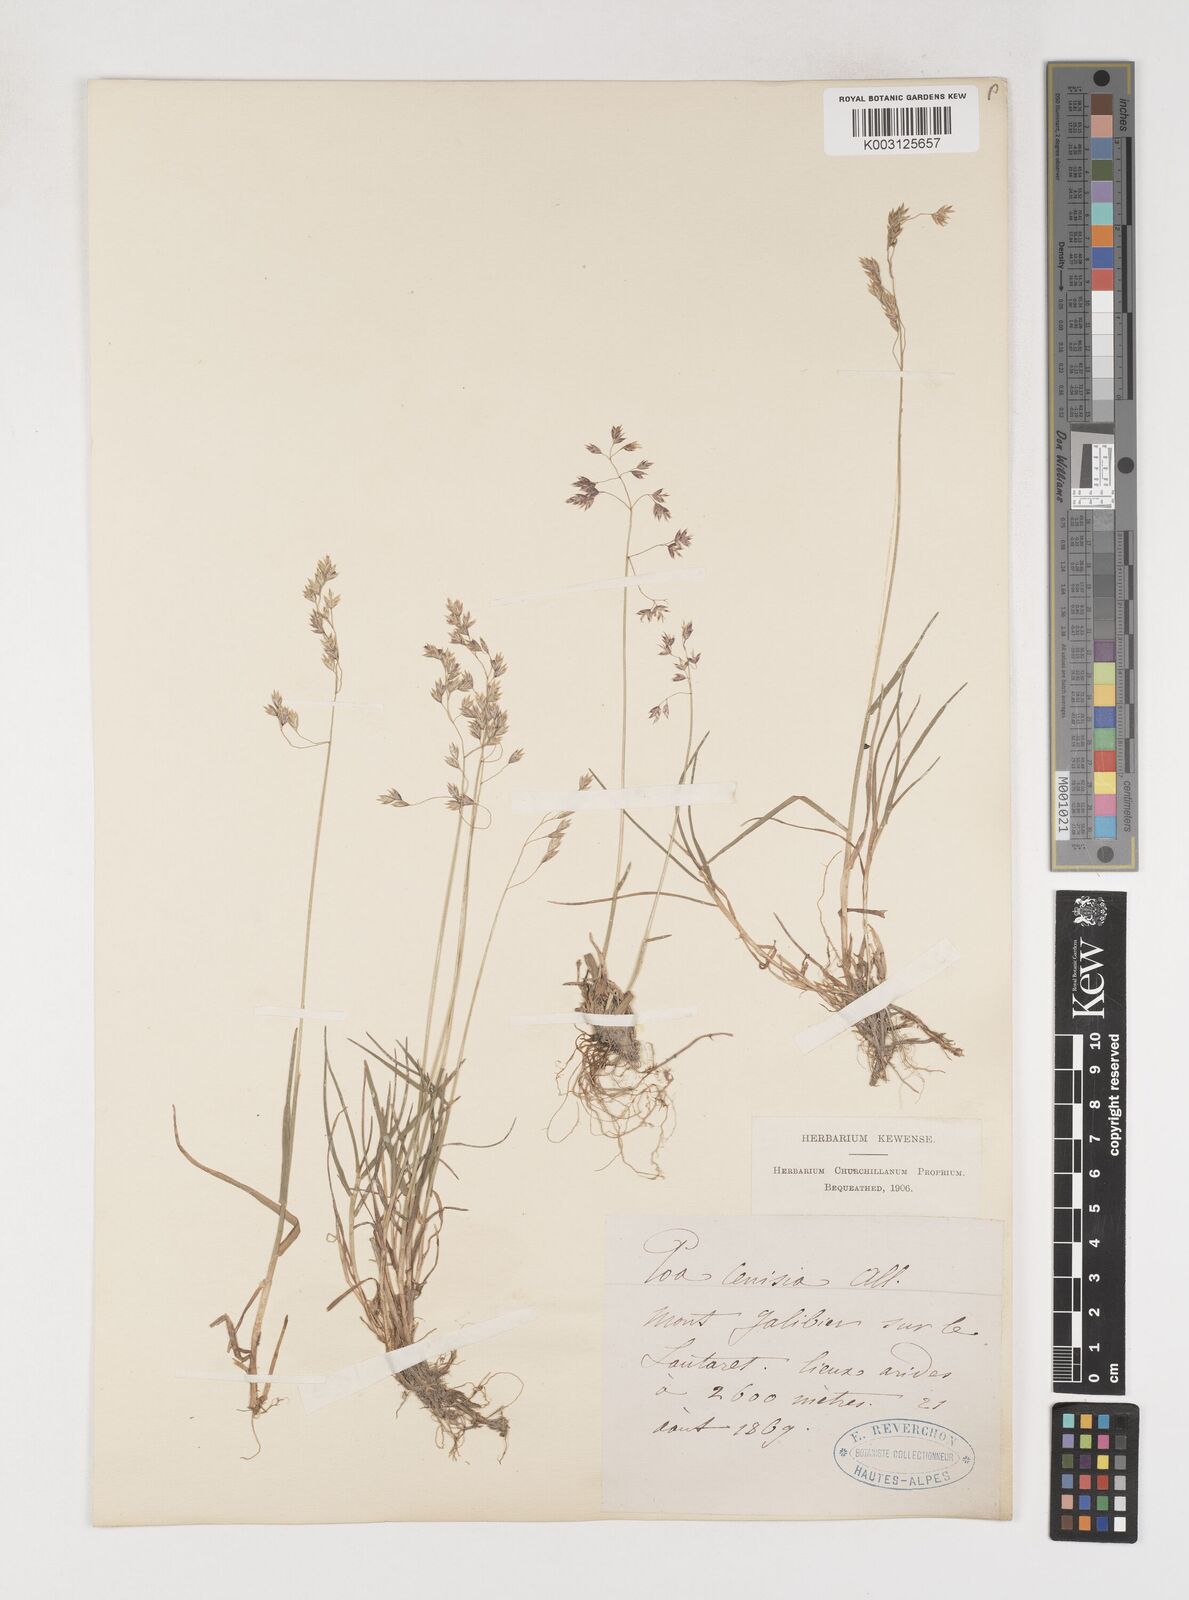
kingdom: Plantae
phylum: Tracheophyta
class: Liliopsida
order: Poales
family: Poaceae
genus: Poa
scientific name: Poa
